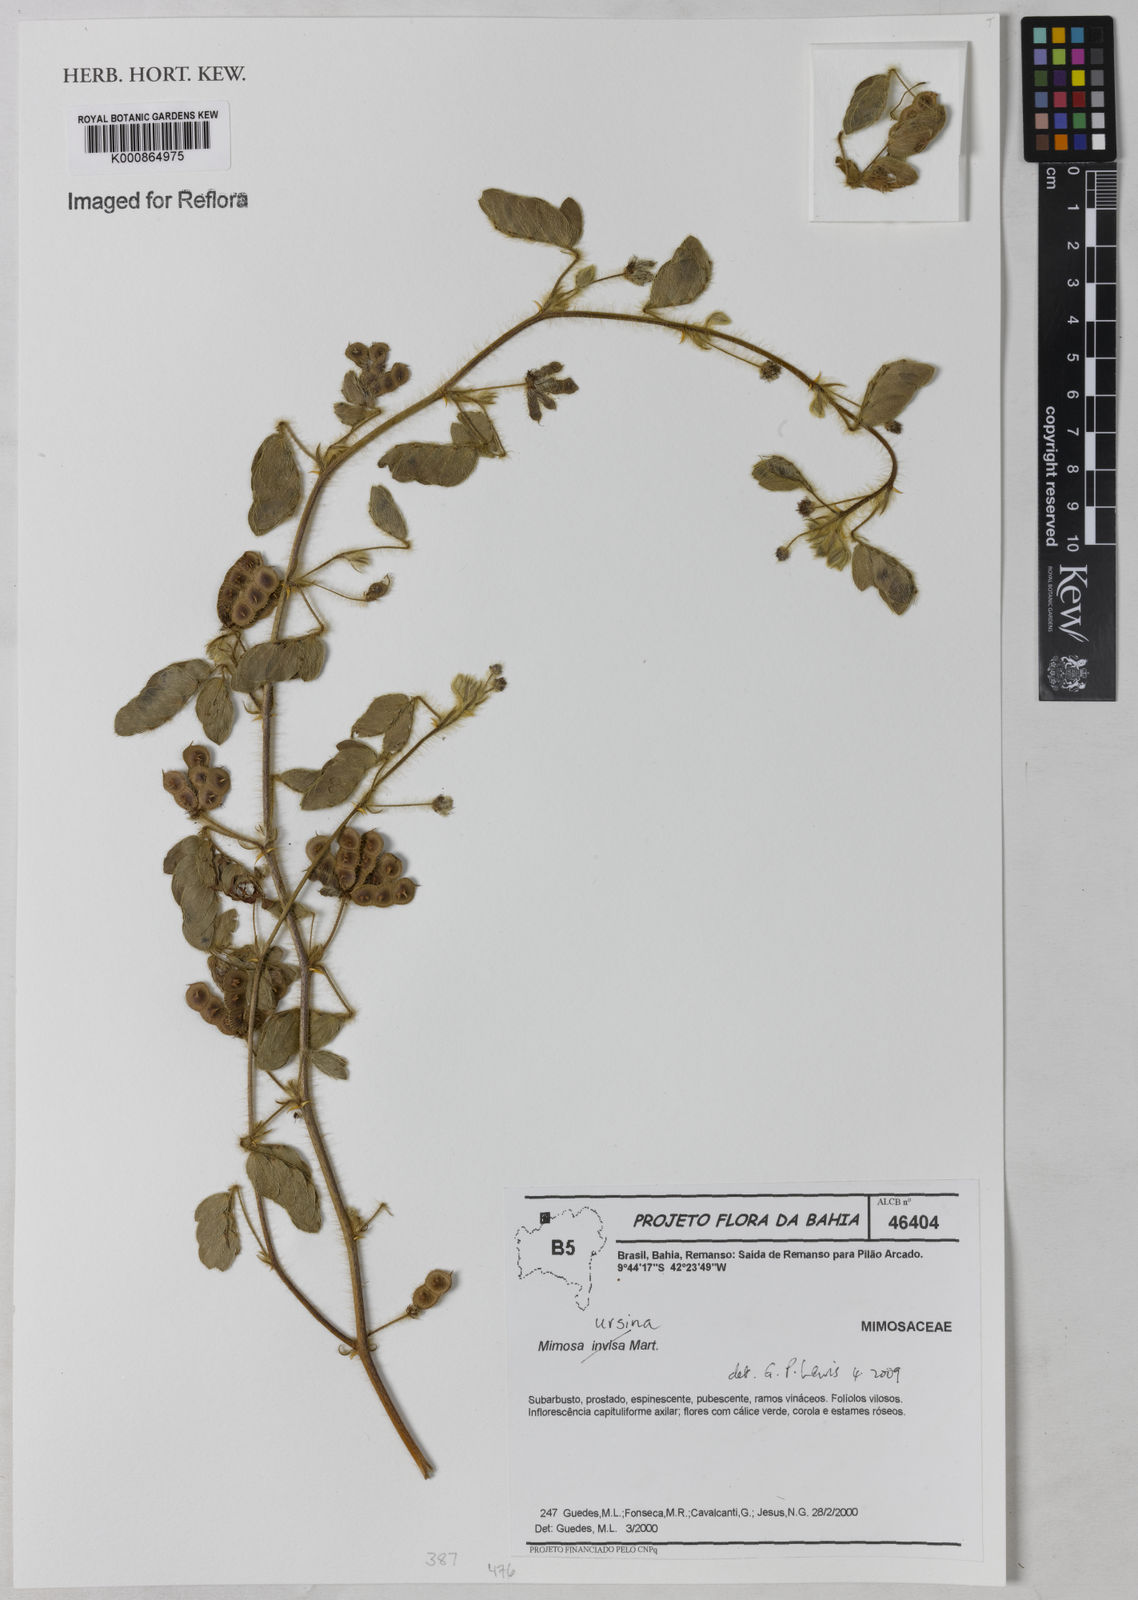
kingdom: Plantae
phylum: Tracheophyta
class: Magnoliopsida
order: Fabales
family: Fabaceae
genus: Mimosa
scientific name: Mimosa ursina
